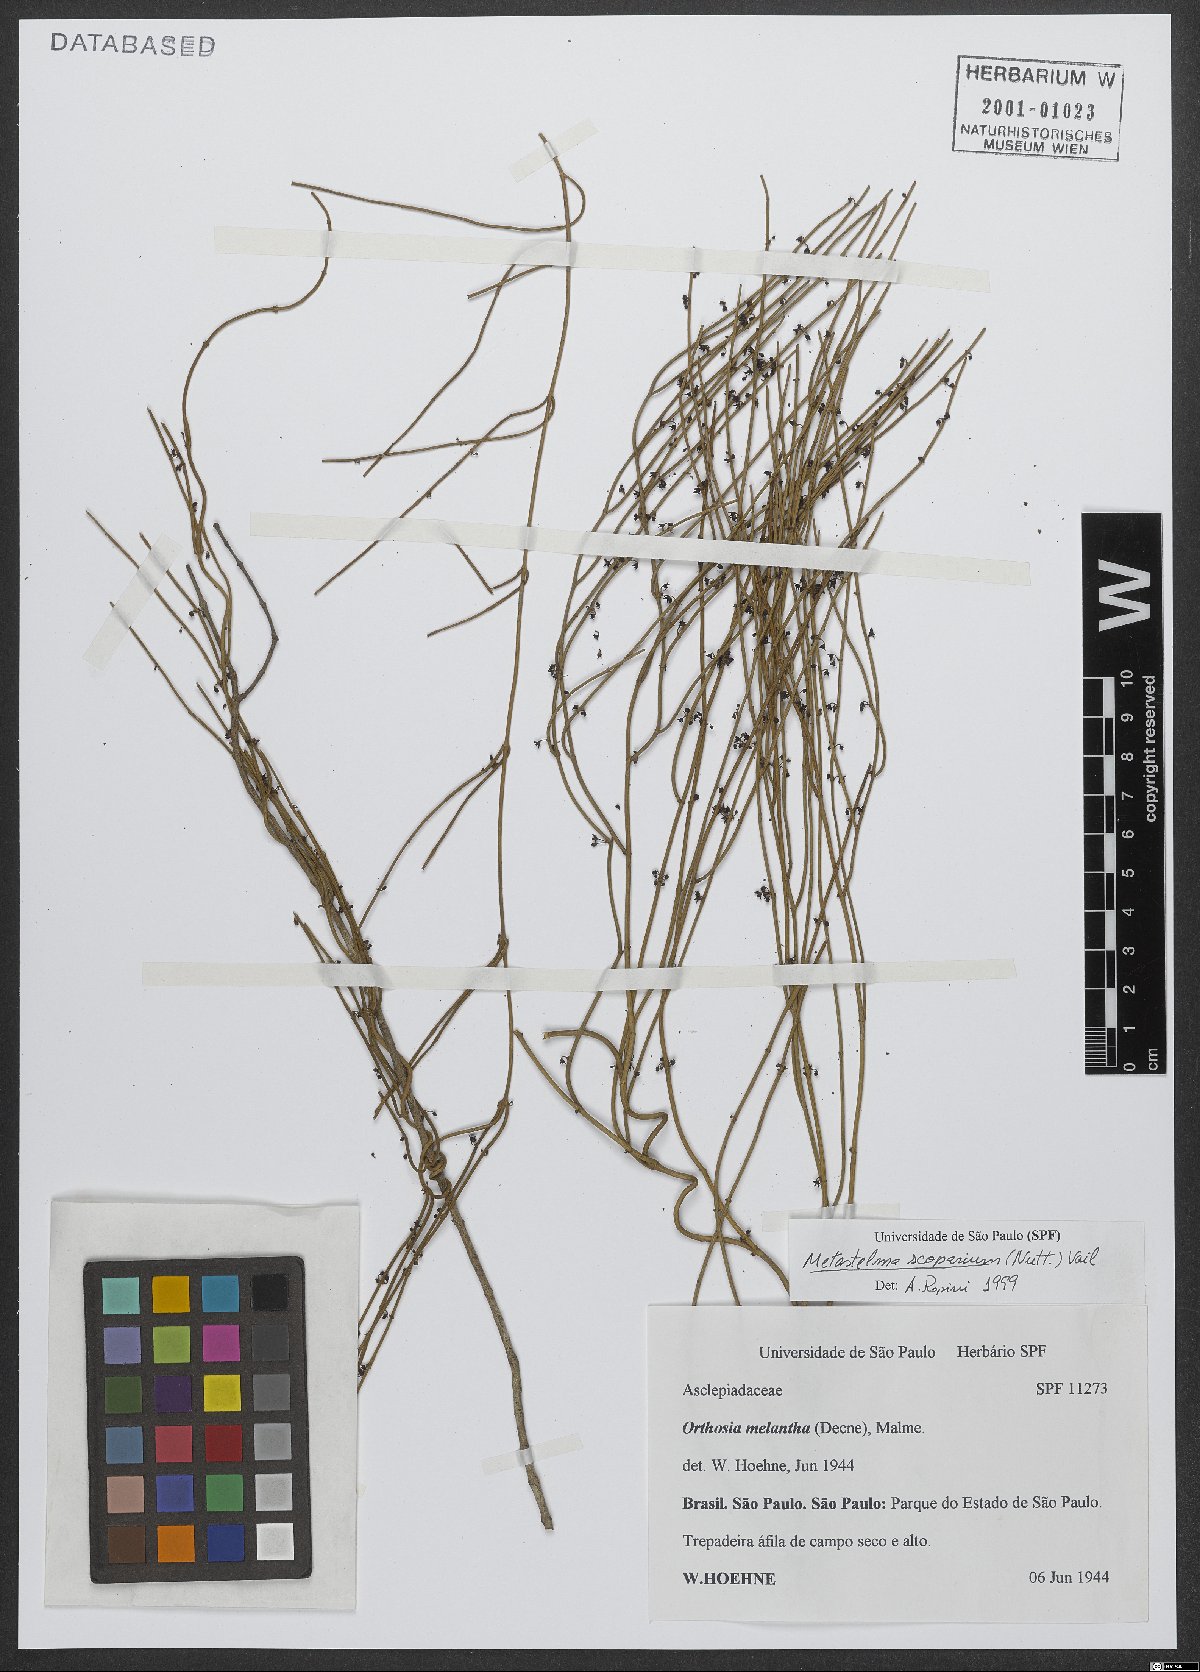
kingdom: Plantae
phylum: Tracheophyta
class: Magnoliopsida
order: Gentianales
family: Apocynaceae
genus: Orthosia
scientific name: Orthosia scoparia
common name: Leafless swallow-wort
